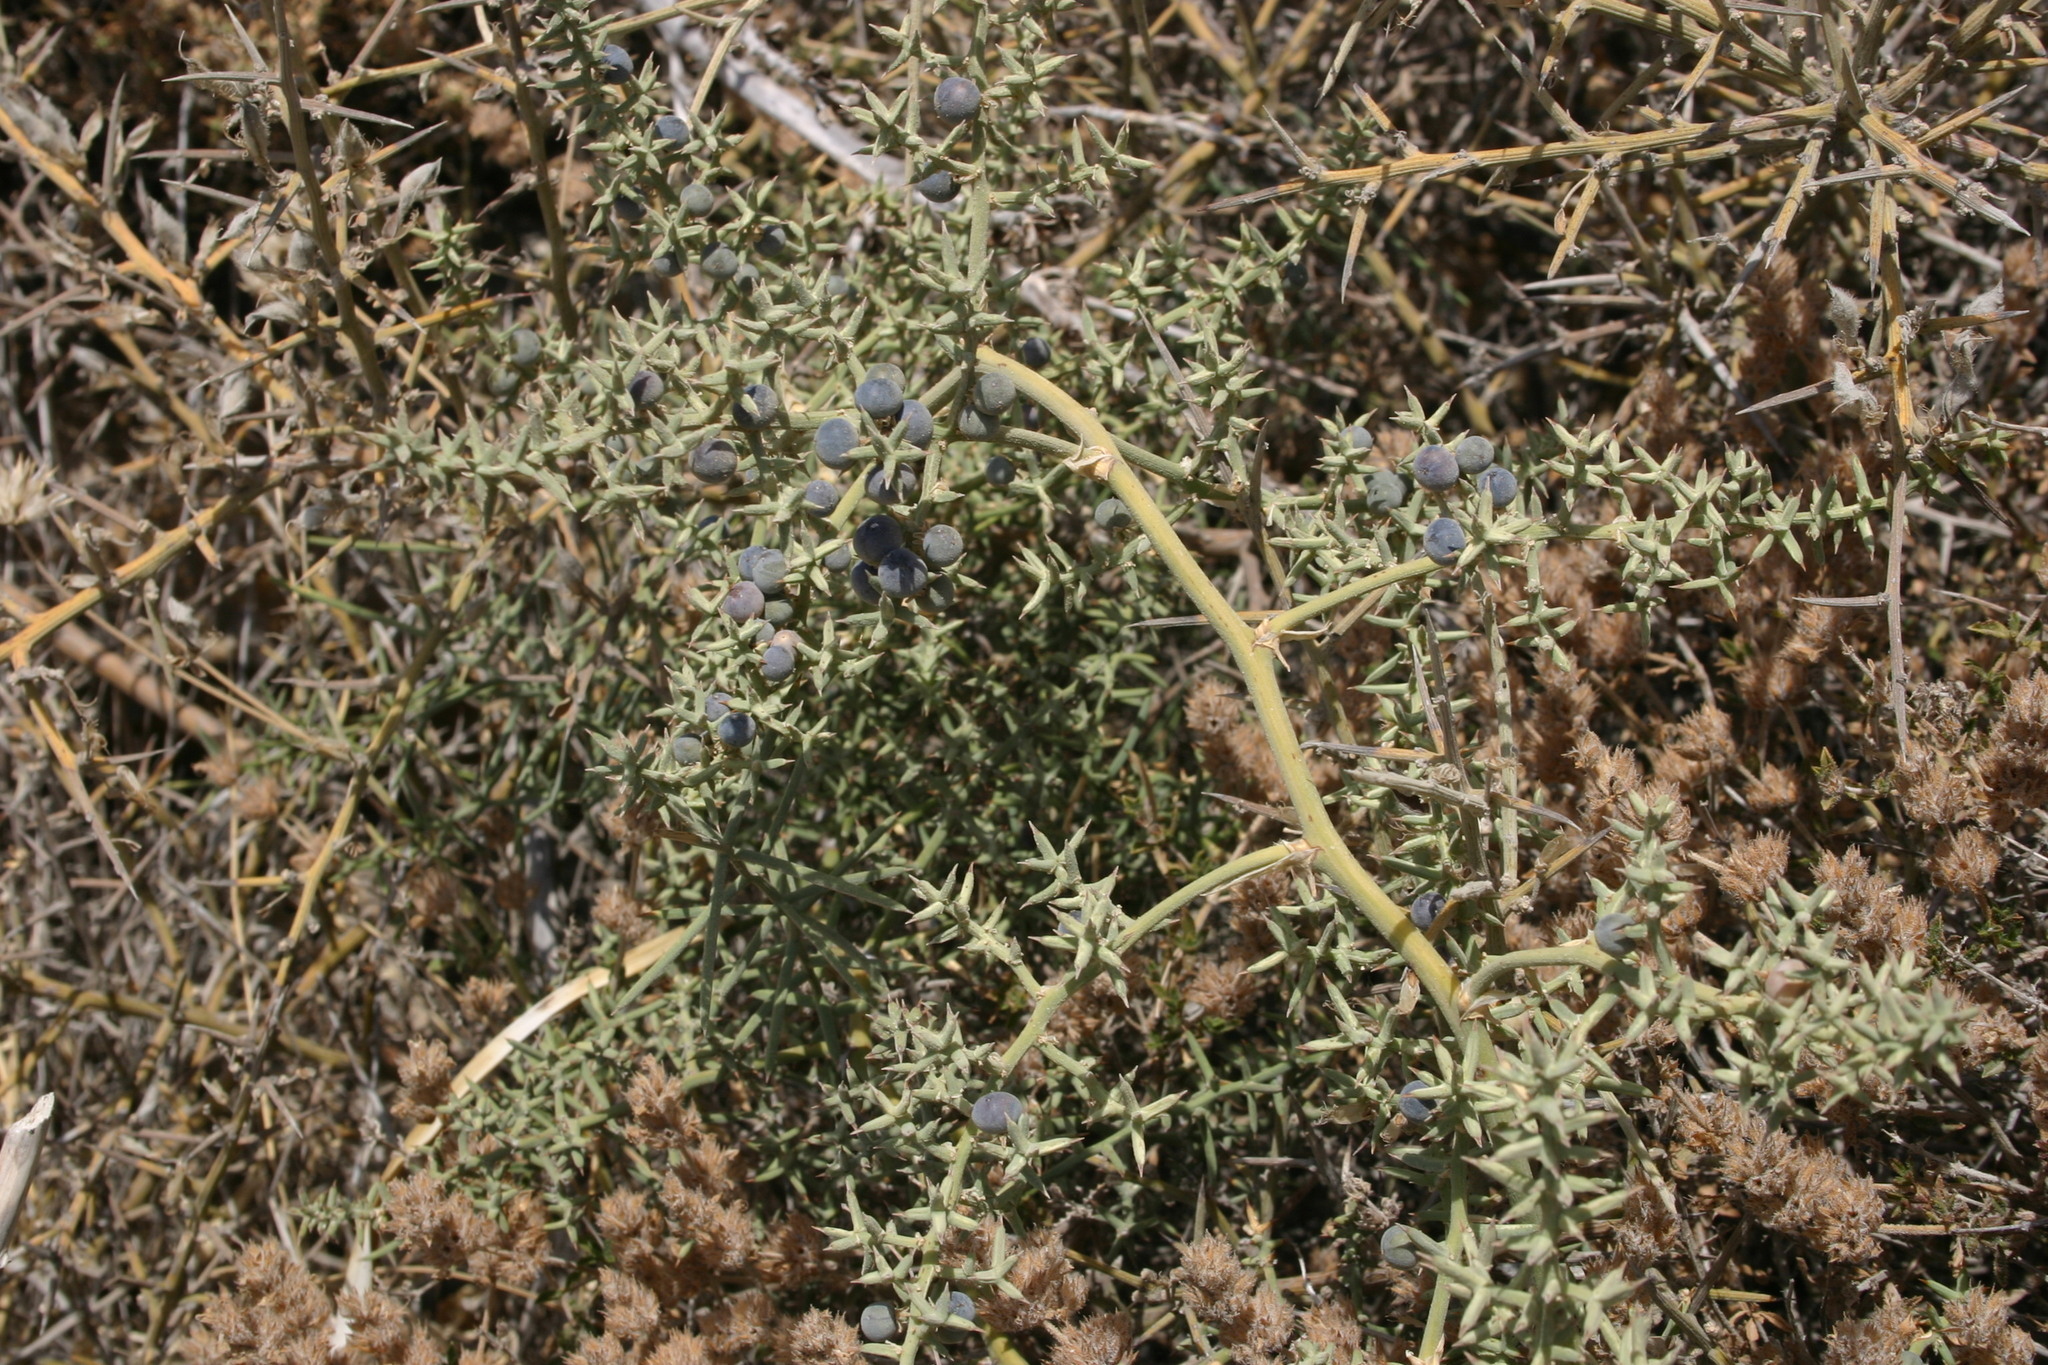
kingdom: Plantae
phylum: Tracheophyta
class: Magnoliopsida
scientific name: Magnoliopsida
